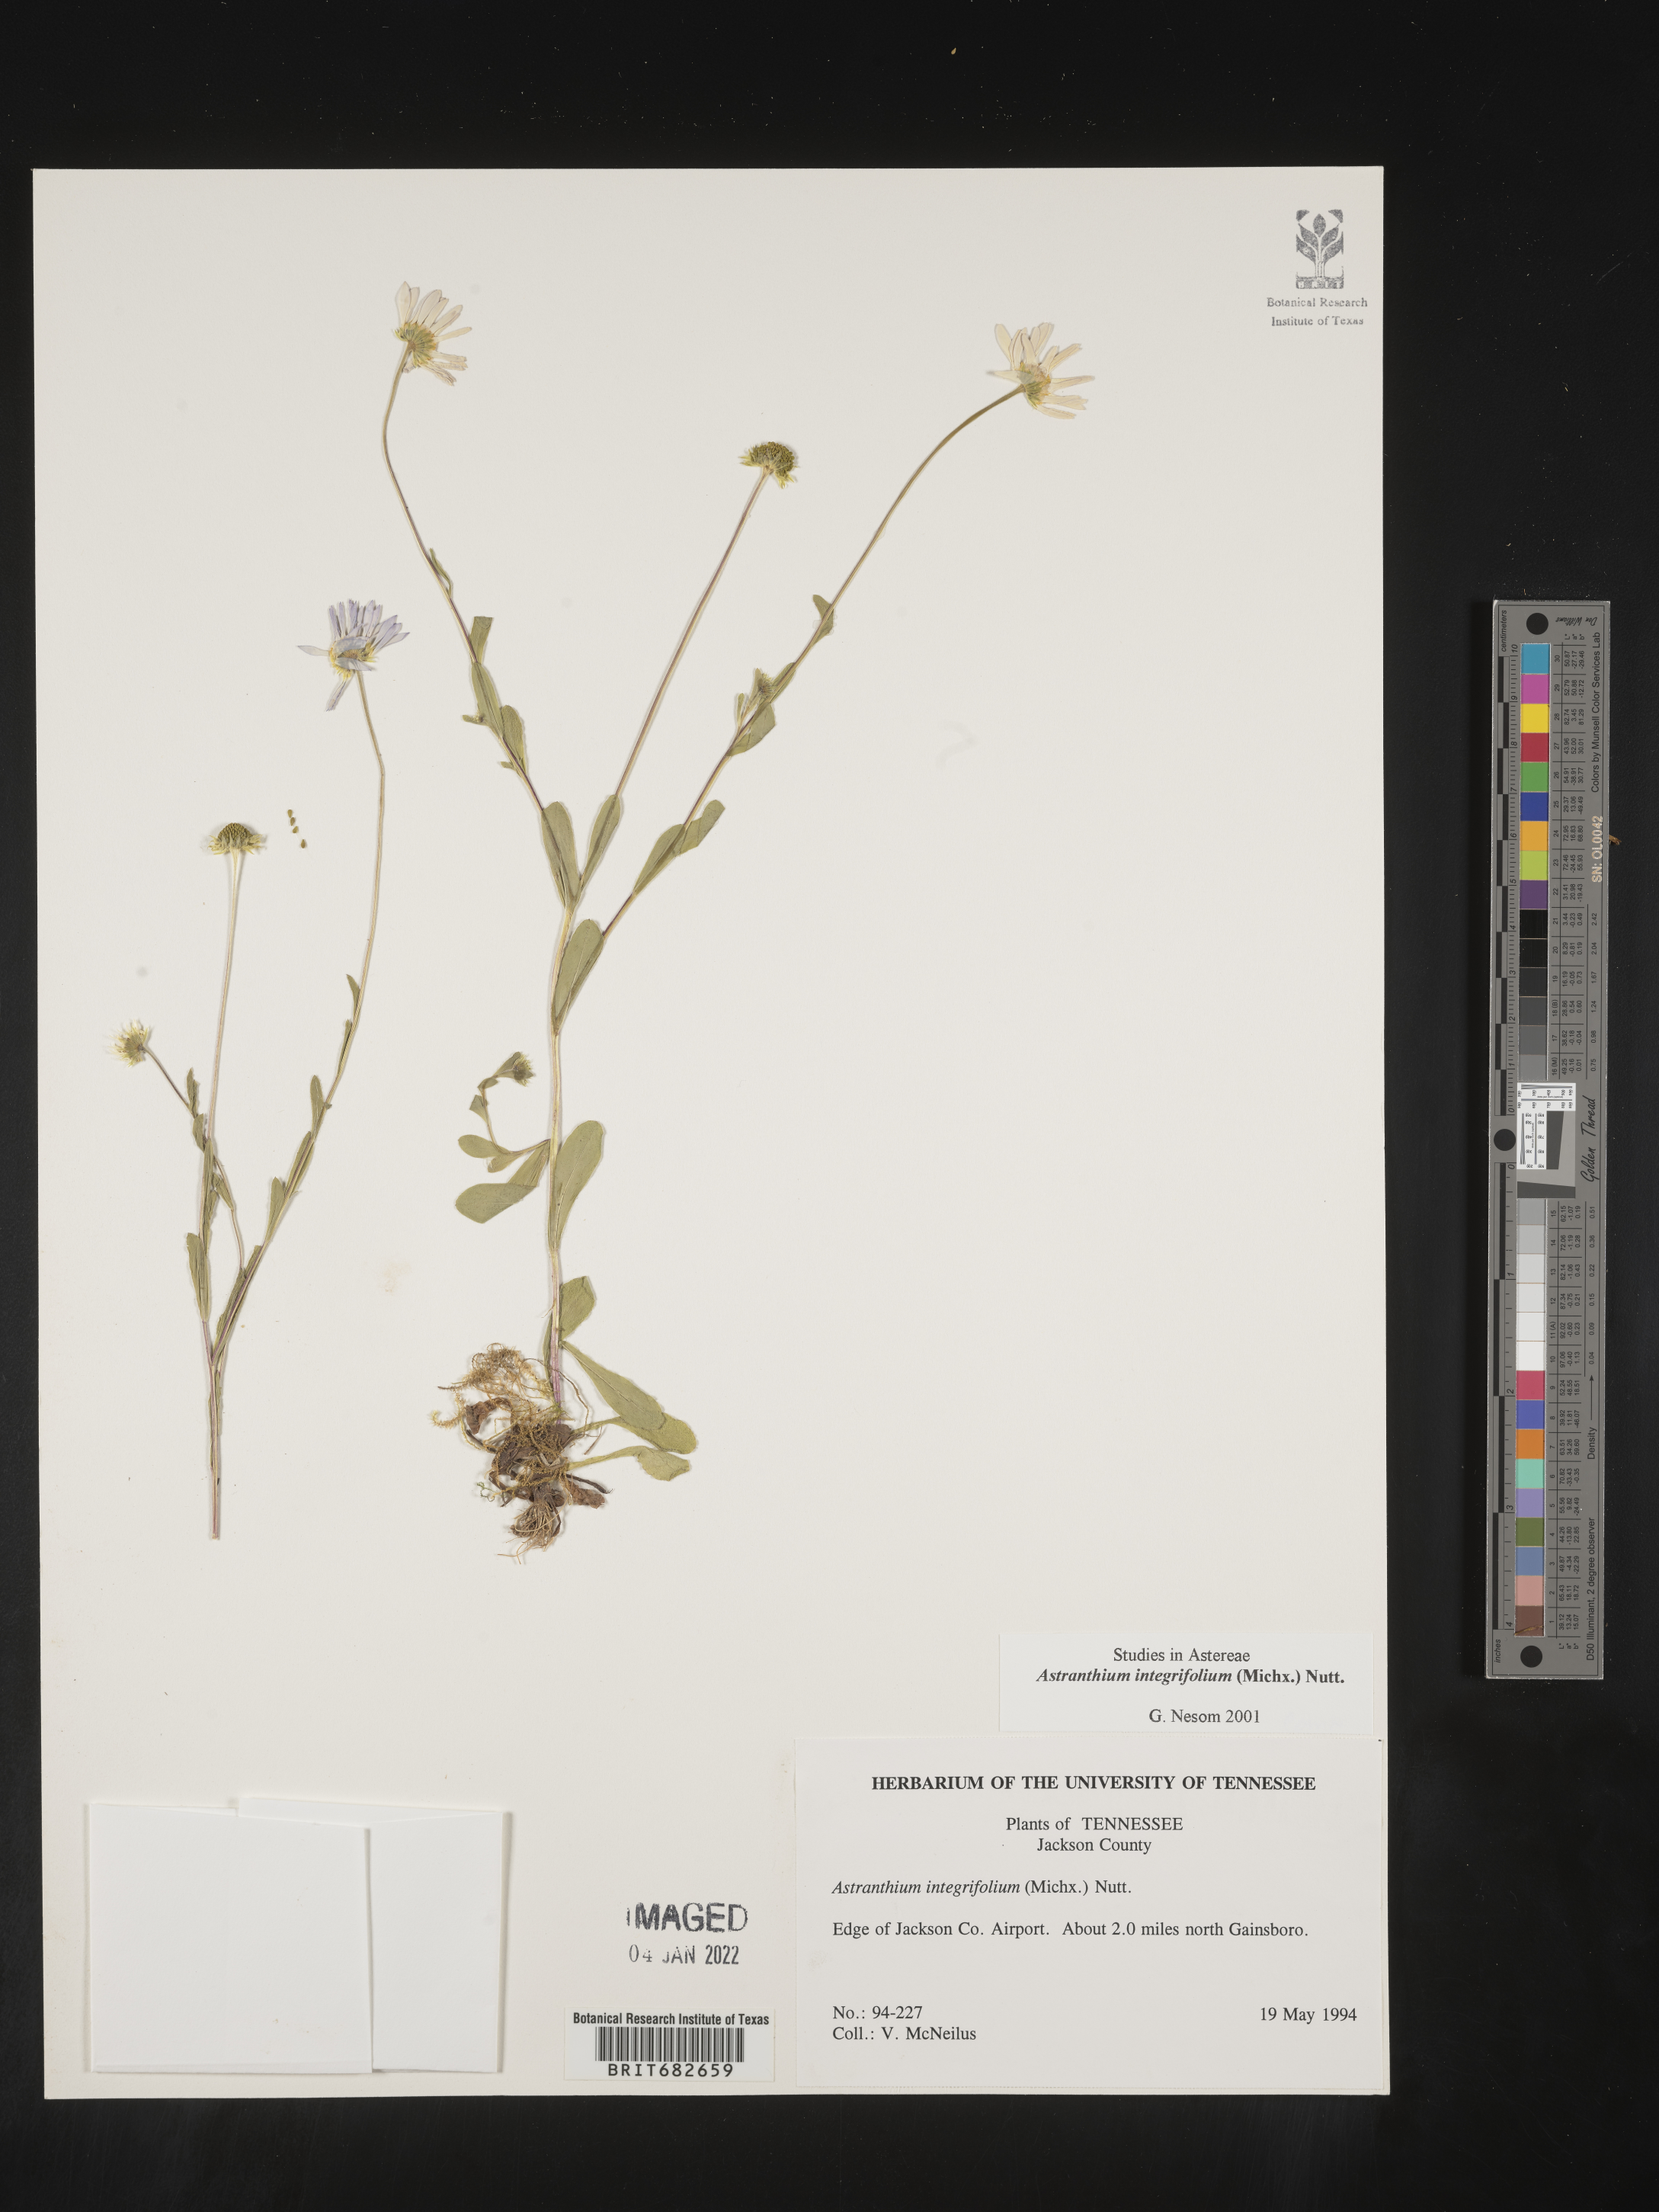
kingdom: Plantae
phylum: Tracheophyta
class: Magnoliopsida
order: Asterales
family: Asteraceae
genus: Astranthium
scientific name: Astranthium
